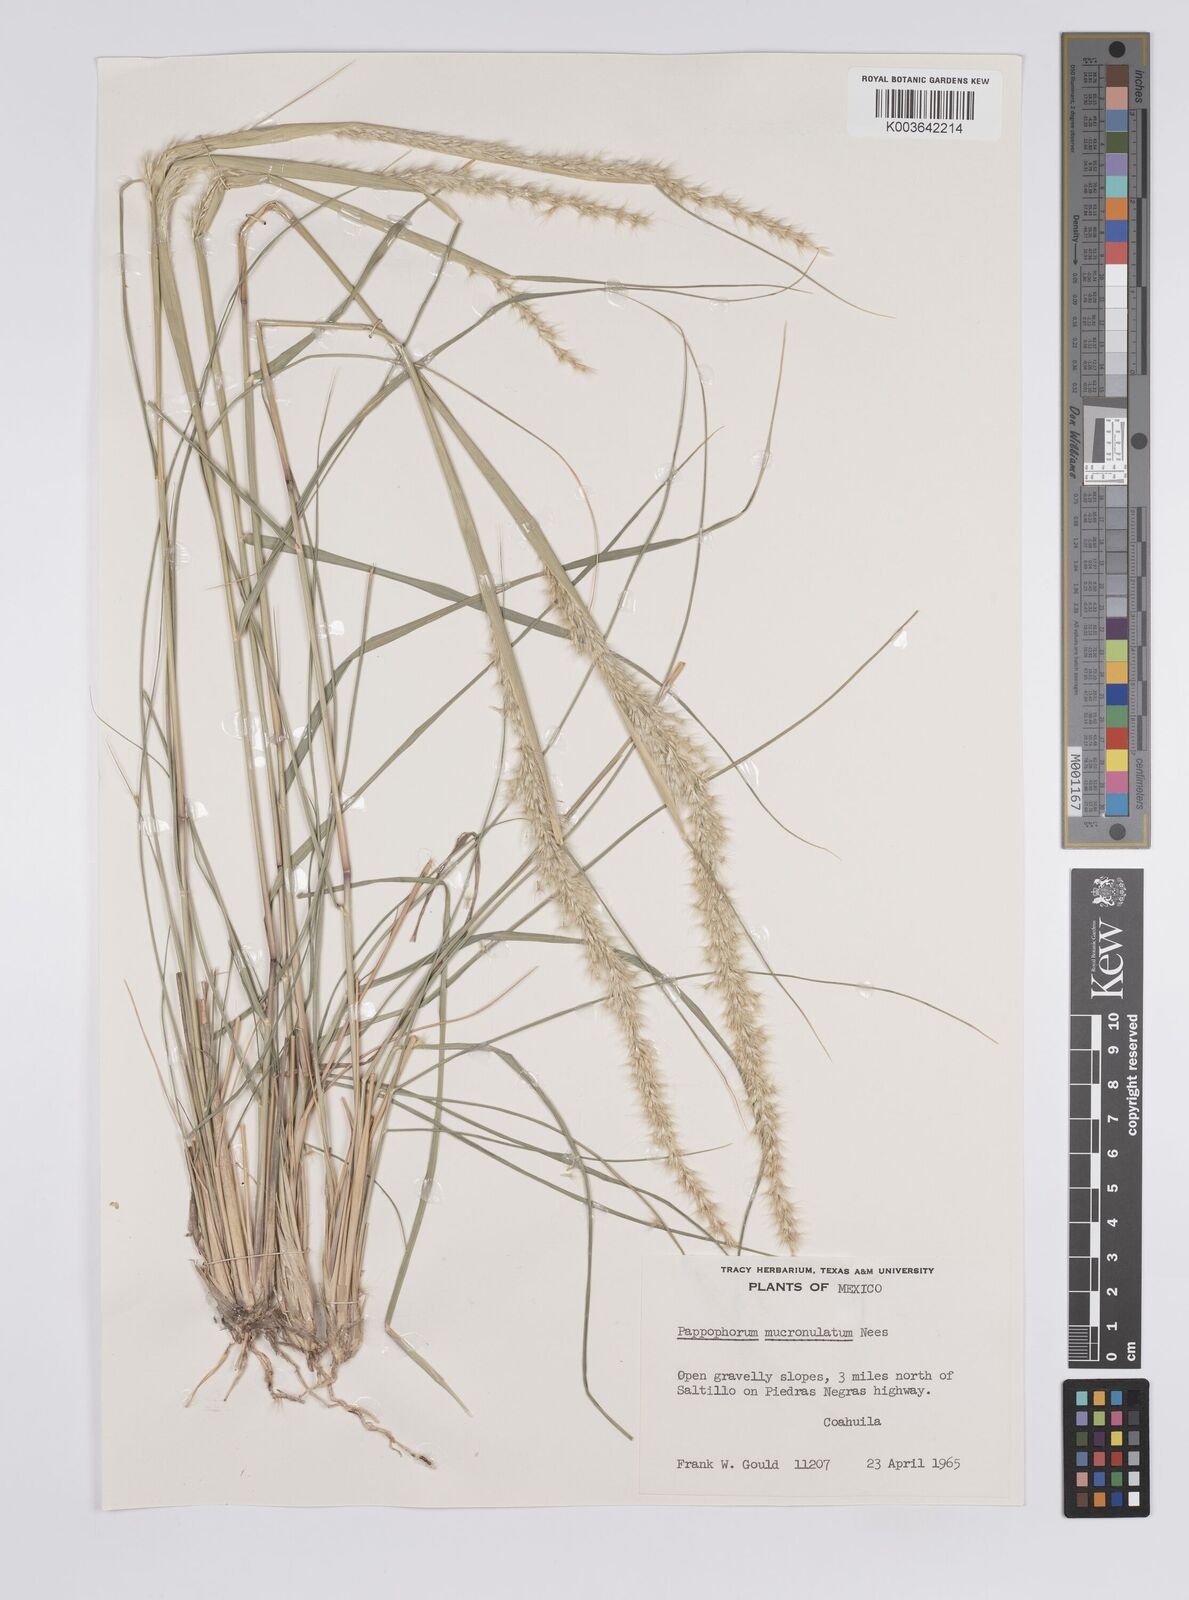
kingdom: Plantae
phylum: Tracheophyta
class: Liliopsida
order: Poales
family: Poaceae
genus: Pappophorum
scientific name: Pappophorum mucronulatum
